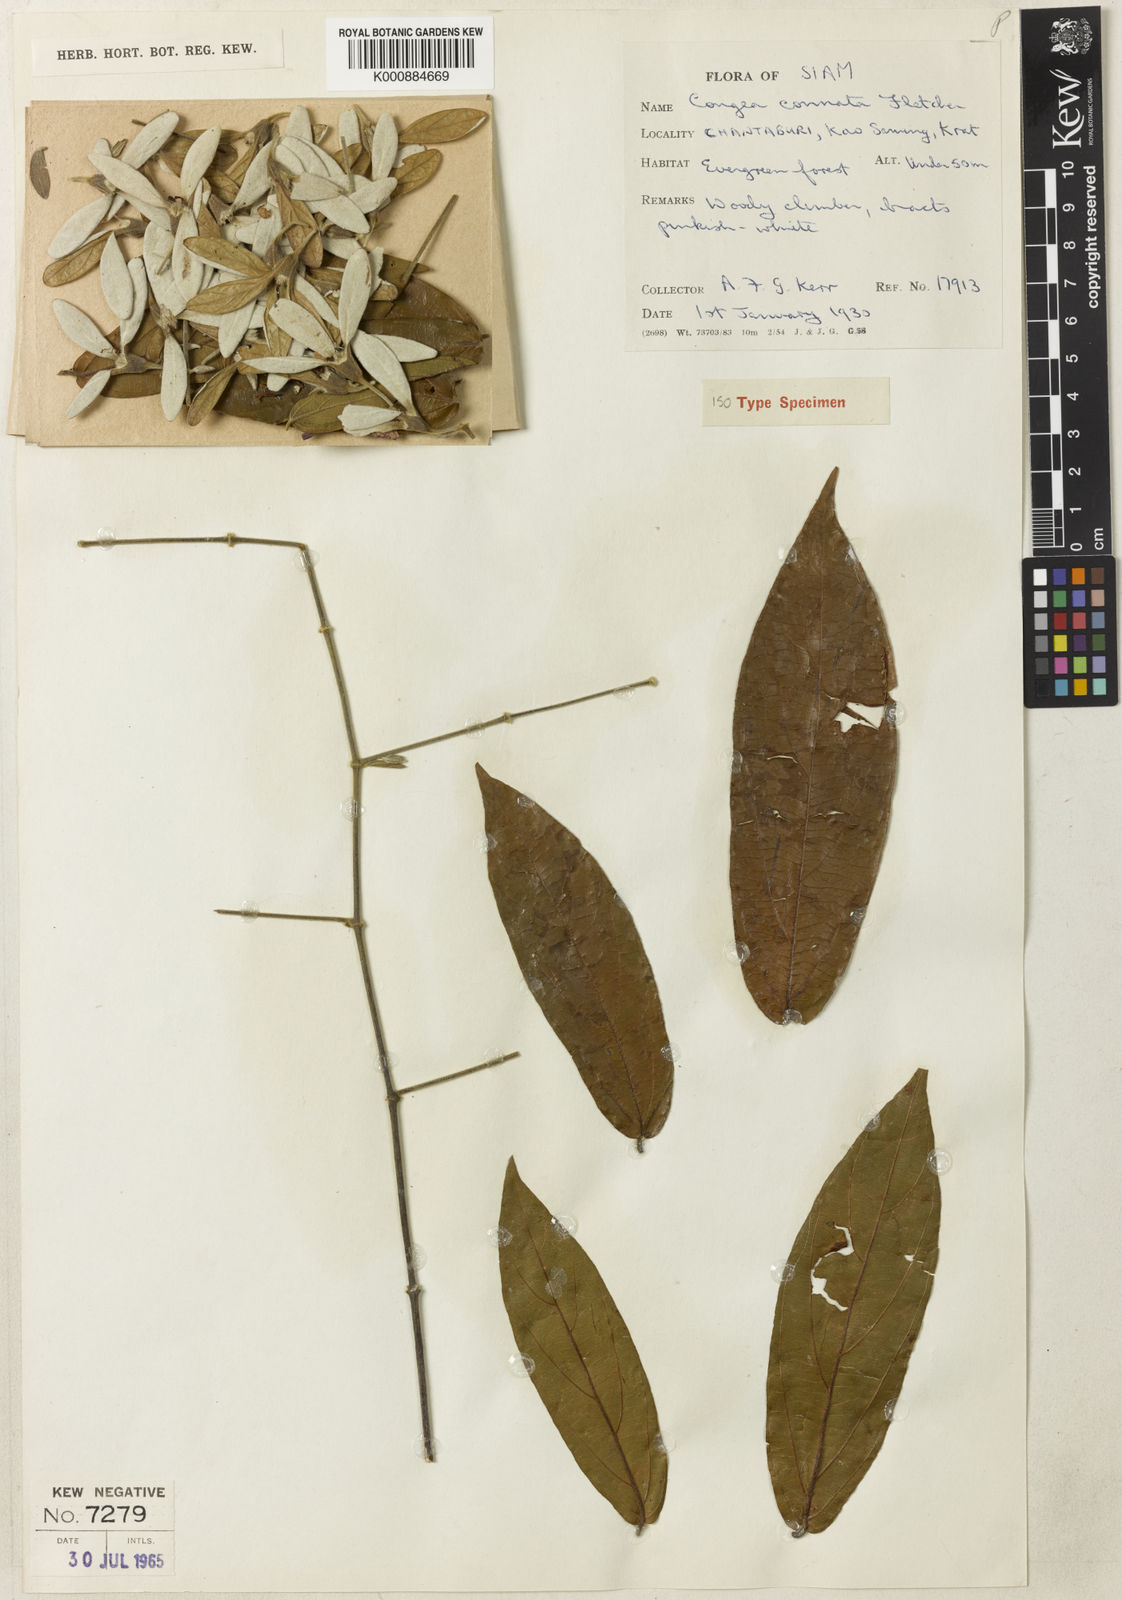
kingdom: Plantae
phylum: Tracheophyta
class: Magnoliopsida
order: Lamiales
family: Lamiaceae
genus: Congea
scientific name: Congea connata
